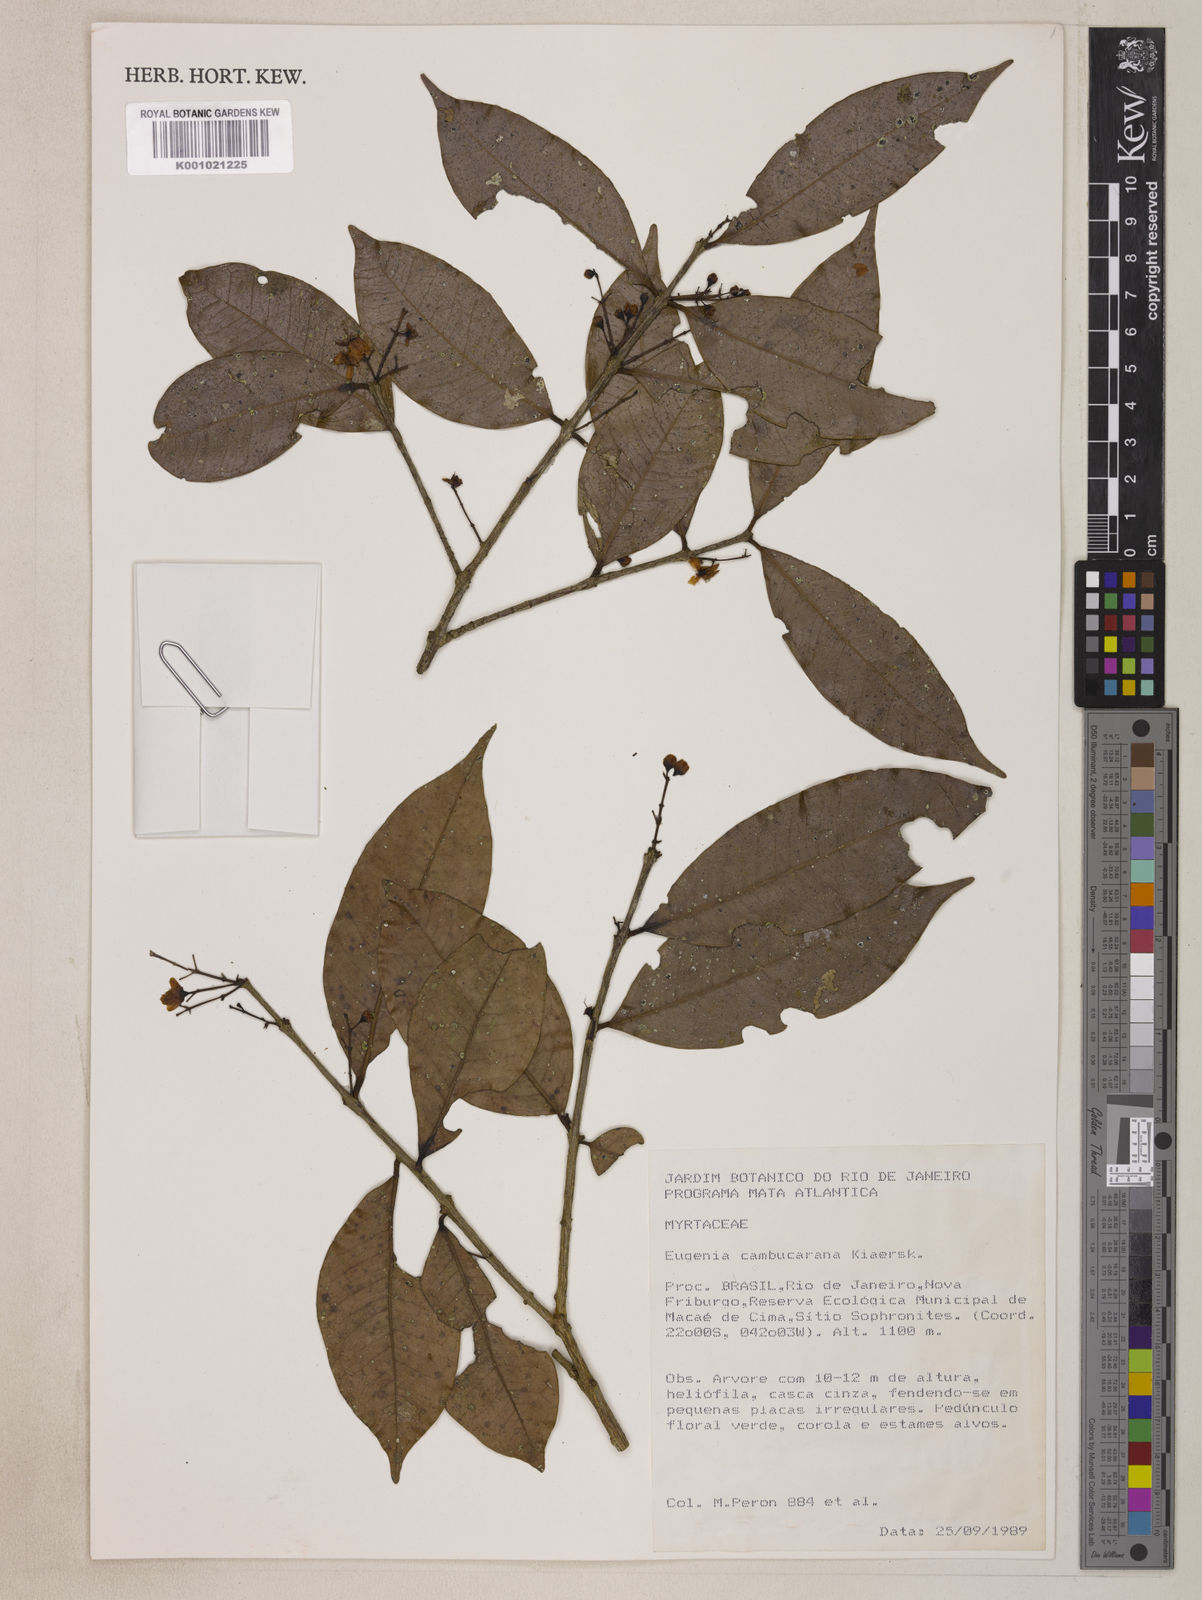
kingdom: Plantae
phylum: Tracheophyta
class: Magnoliopsida
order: Myrtales
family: Myrtaceae
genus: Eugenia
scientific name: Eugenia supraaxillaris
